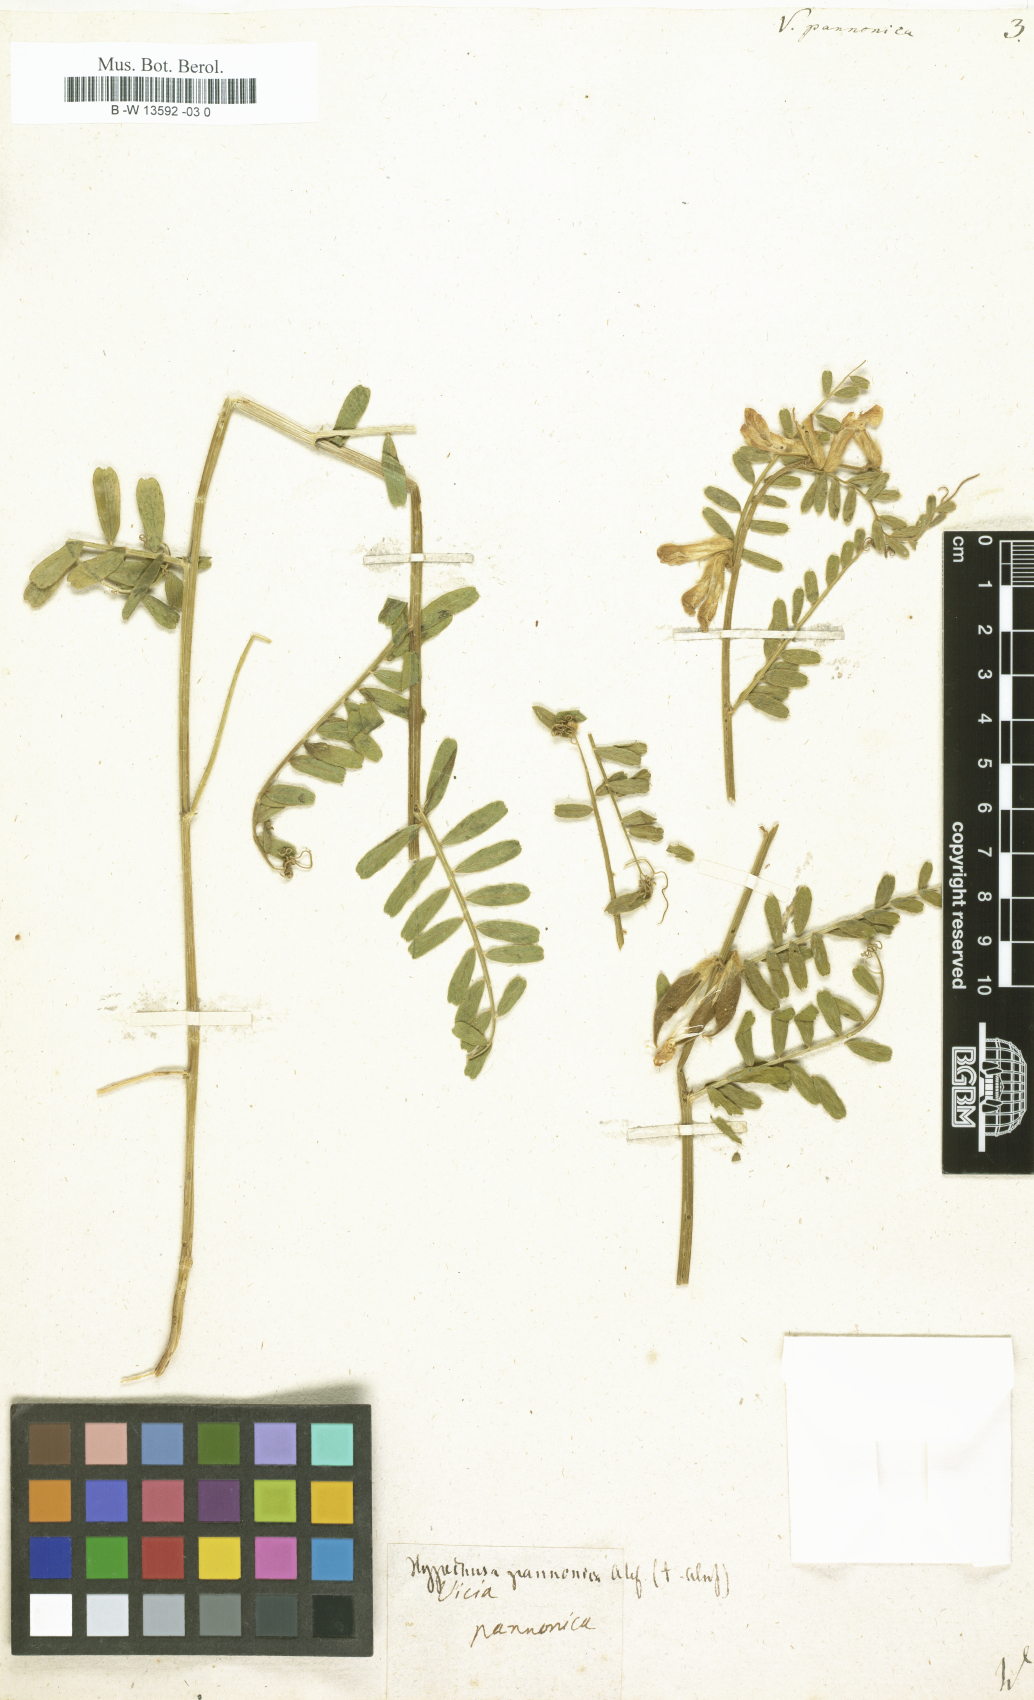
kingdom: Plantae
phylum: Tracheophyta
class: Magnoliopsida
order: Fabales
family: Fabaceae
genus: Vicia
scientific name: Vicia pannonica
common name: Hungarian vetch
